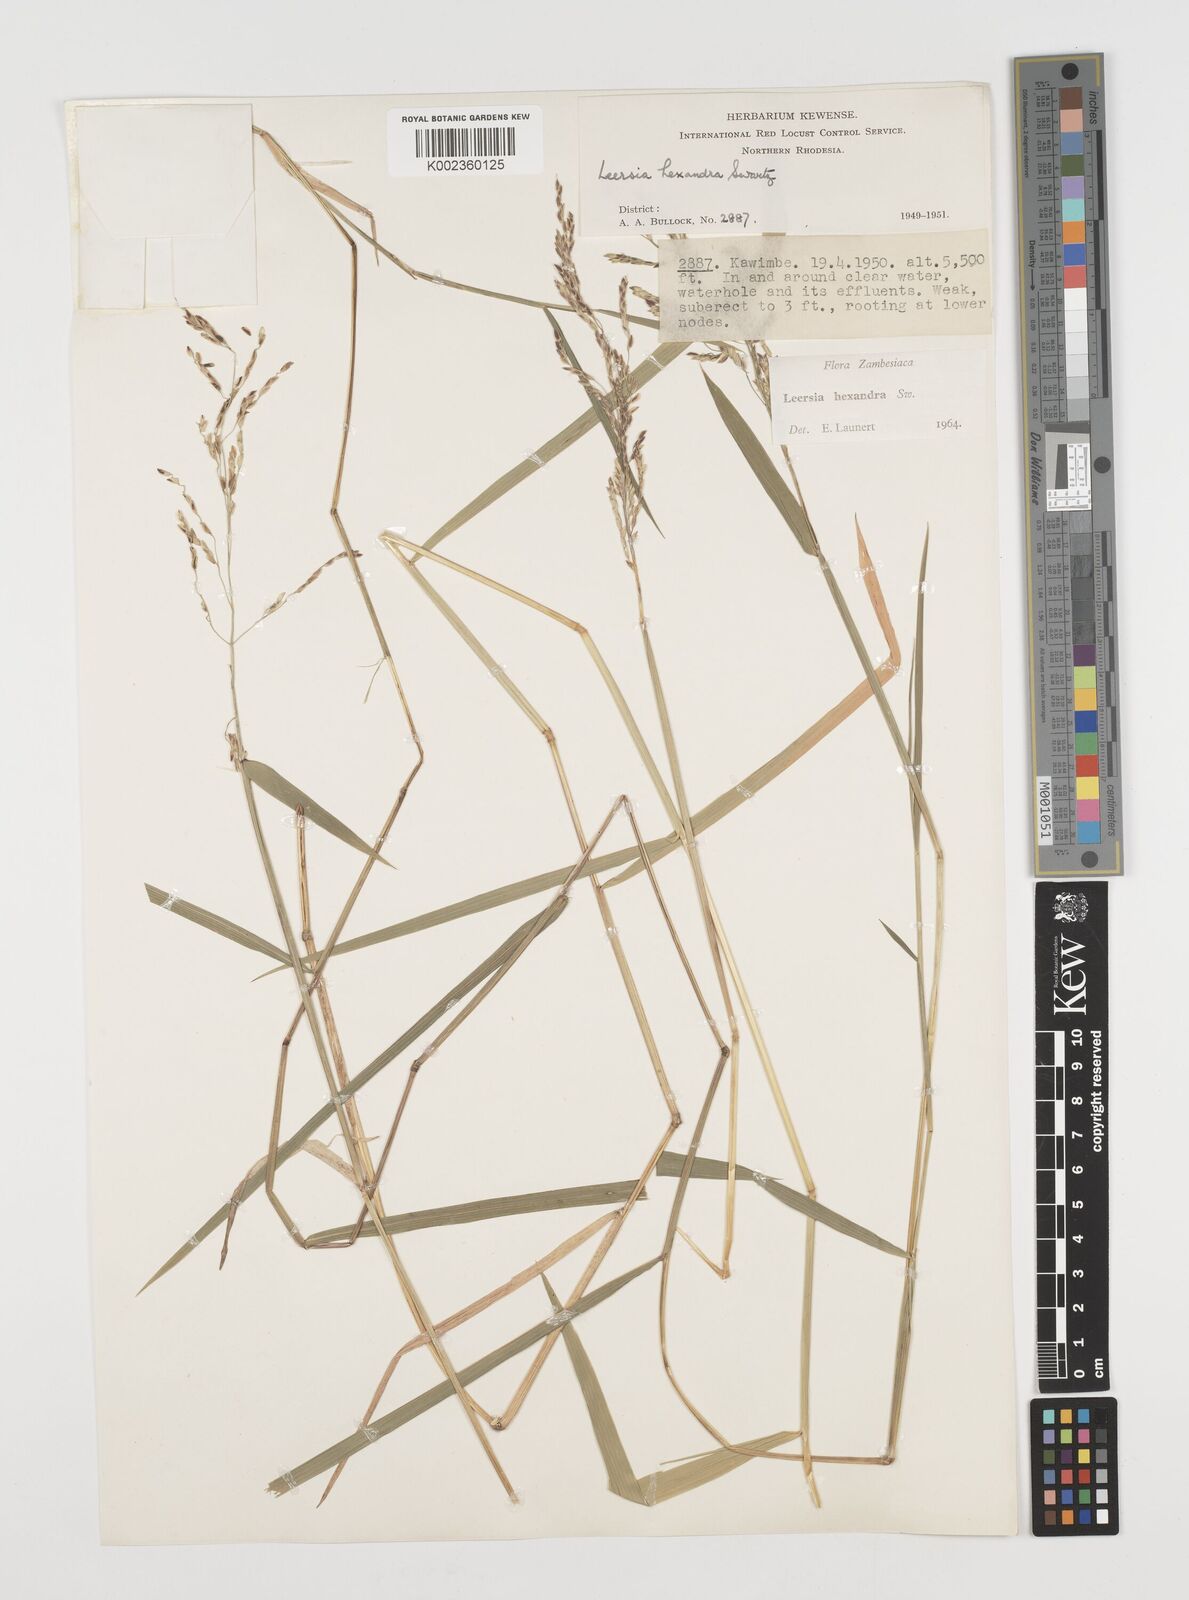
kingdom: Plantae
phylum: Tracheophyta
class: Liliopsida
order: Poales
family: Poaceae
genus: Leersia
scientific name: Leersia hexandra
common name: Southern cut grass
